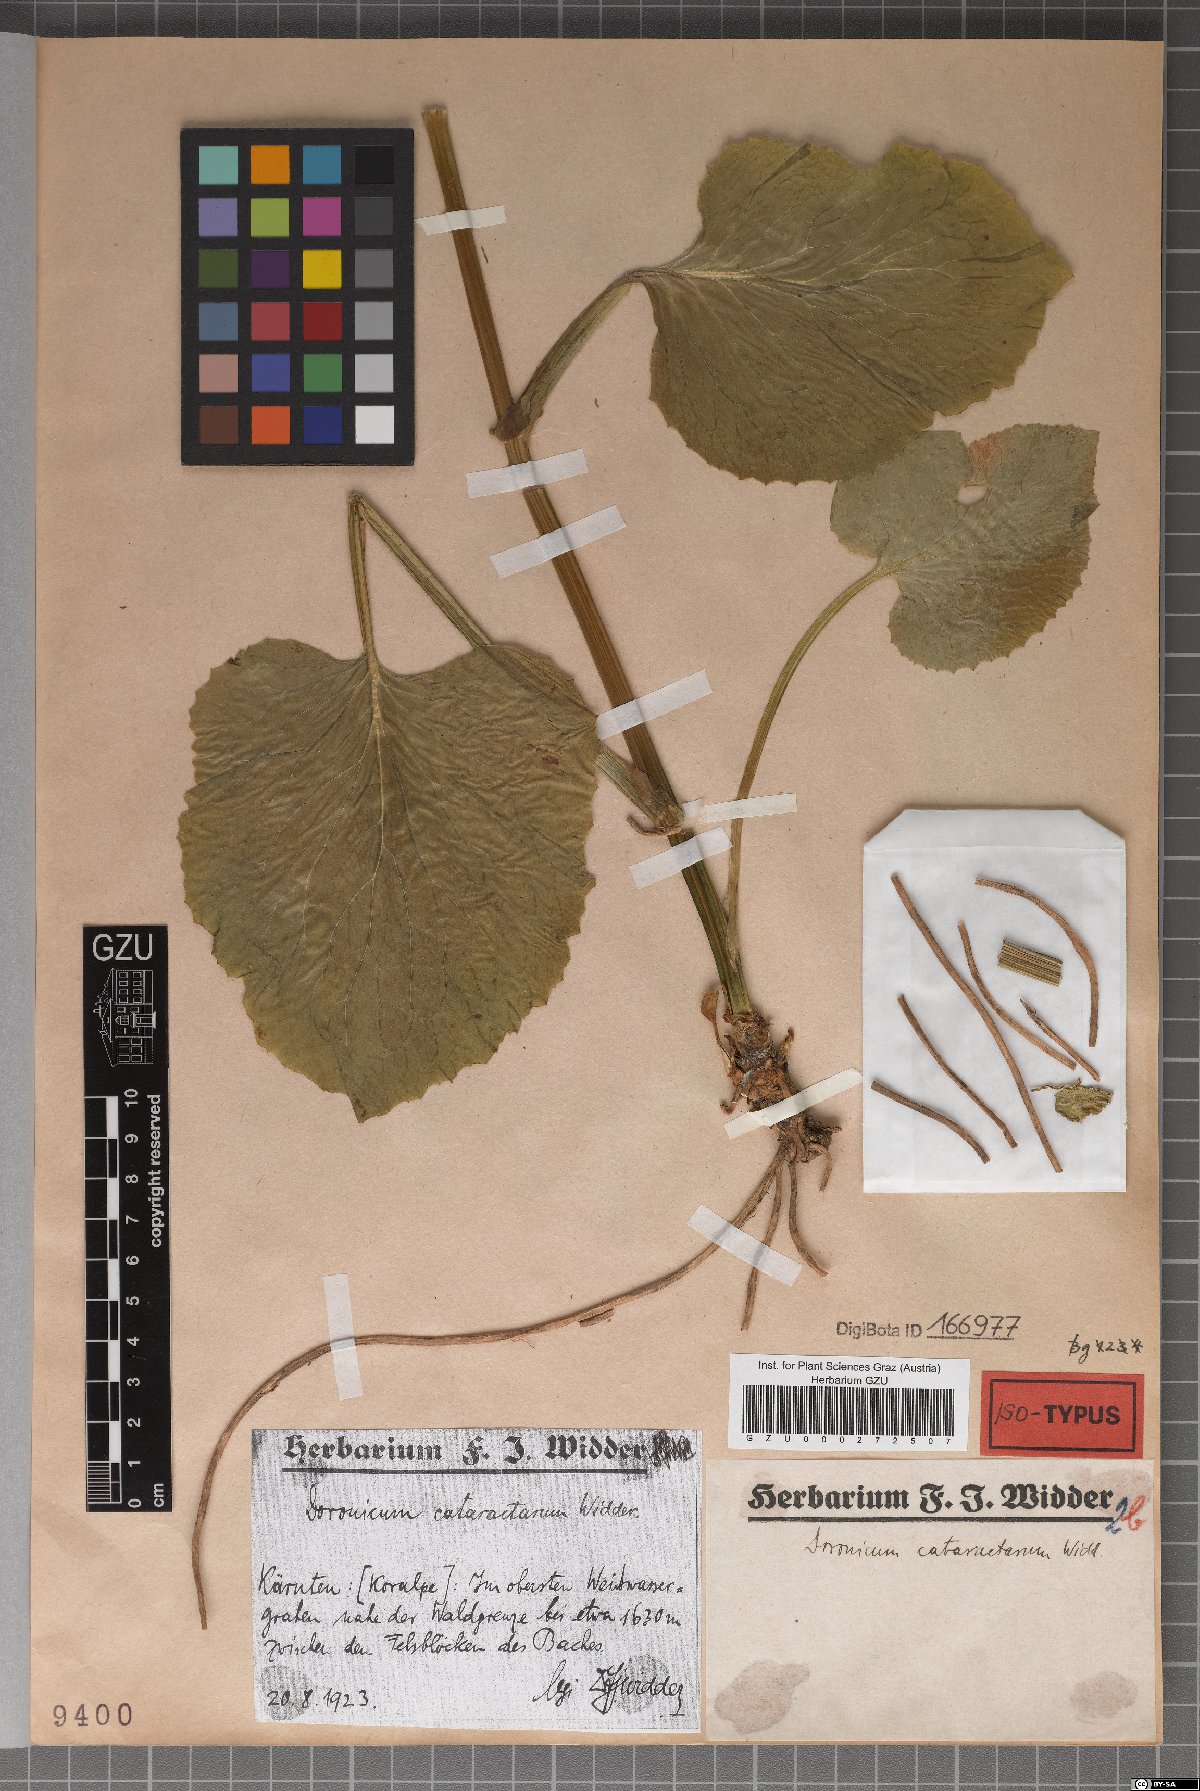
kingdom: Plantae
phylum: Tracheophyta
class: Magnoliopsida
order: Asterales
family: Asteraceae
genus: Doronicum
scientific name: Doronicum cataractarum
